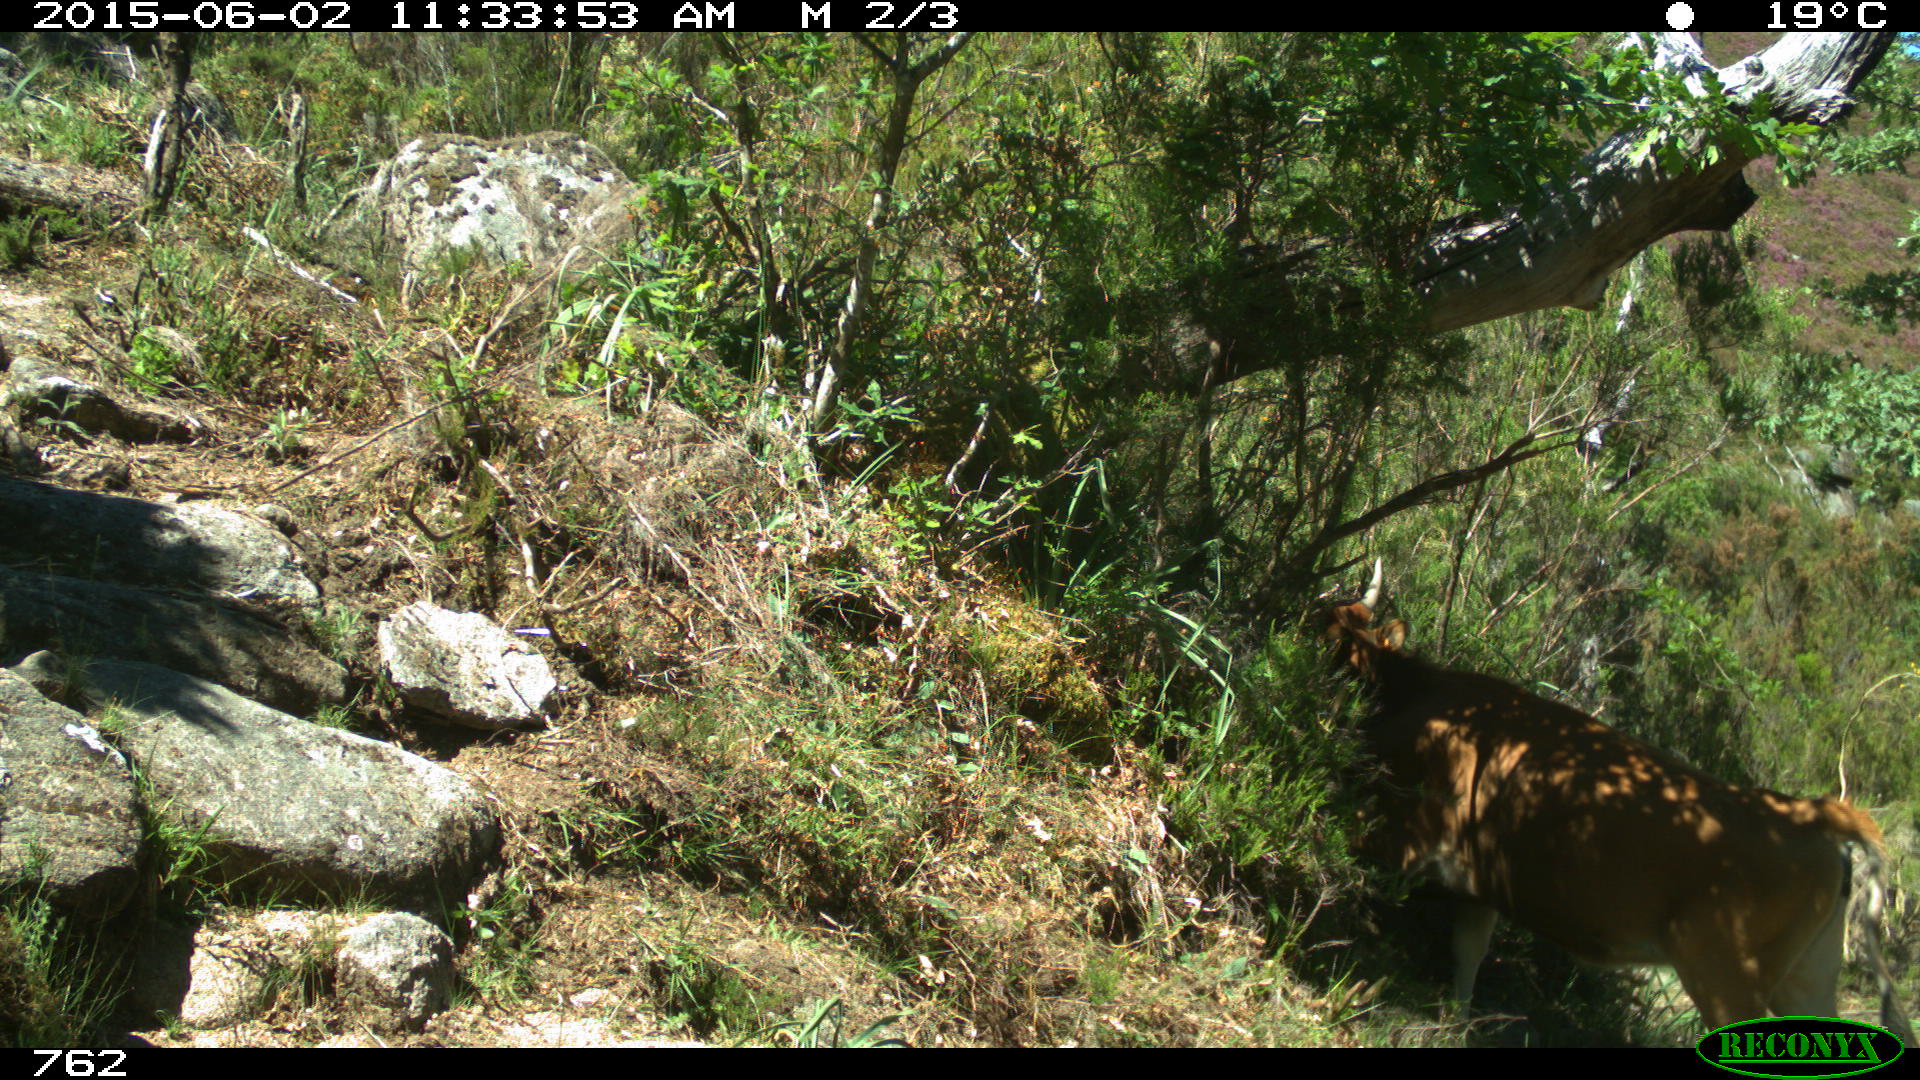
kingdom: Animalia
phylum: Chordata
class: Mammalia
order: Artiodactyla
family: Bovidae
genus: Bos
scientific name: Bos taurus
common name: Domesticated cattle
